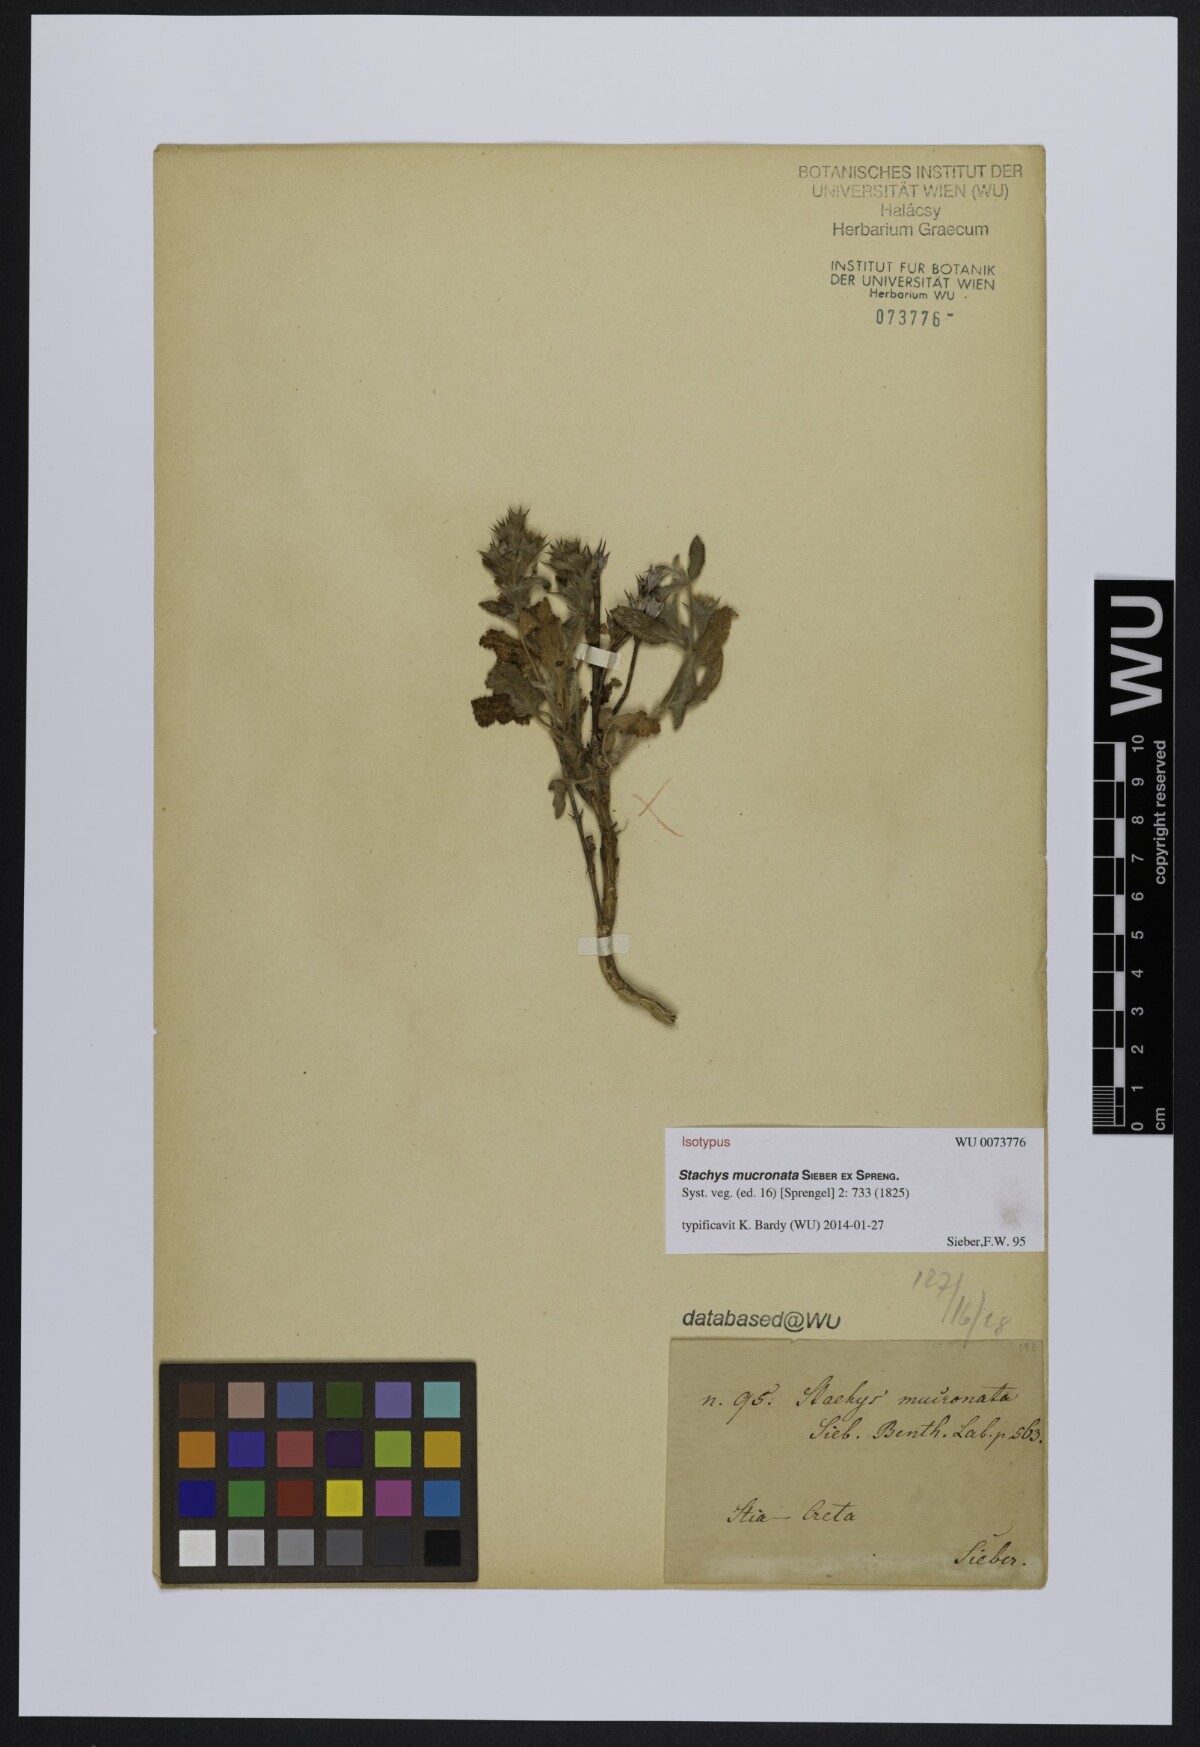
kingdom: Plantae
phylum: Tracheophyta
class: Magnoliopsida
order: Lamiales
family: Lamiaceae
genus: Stachys
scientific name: Stachys mucronata
